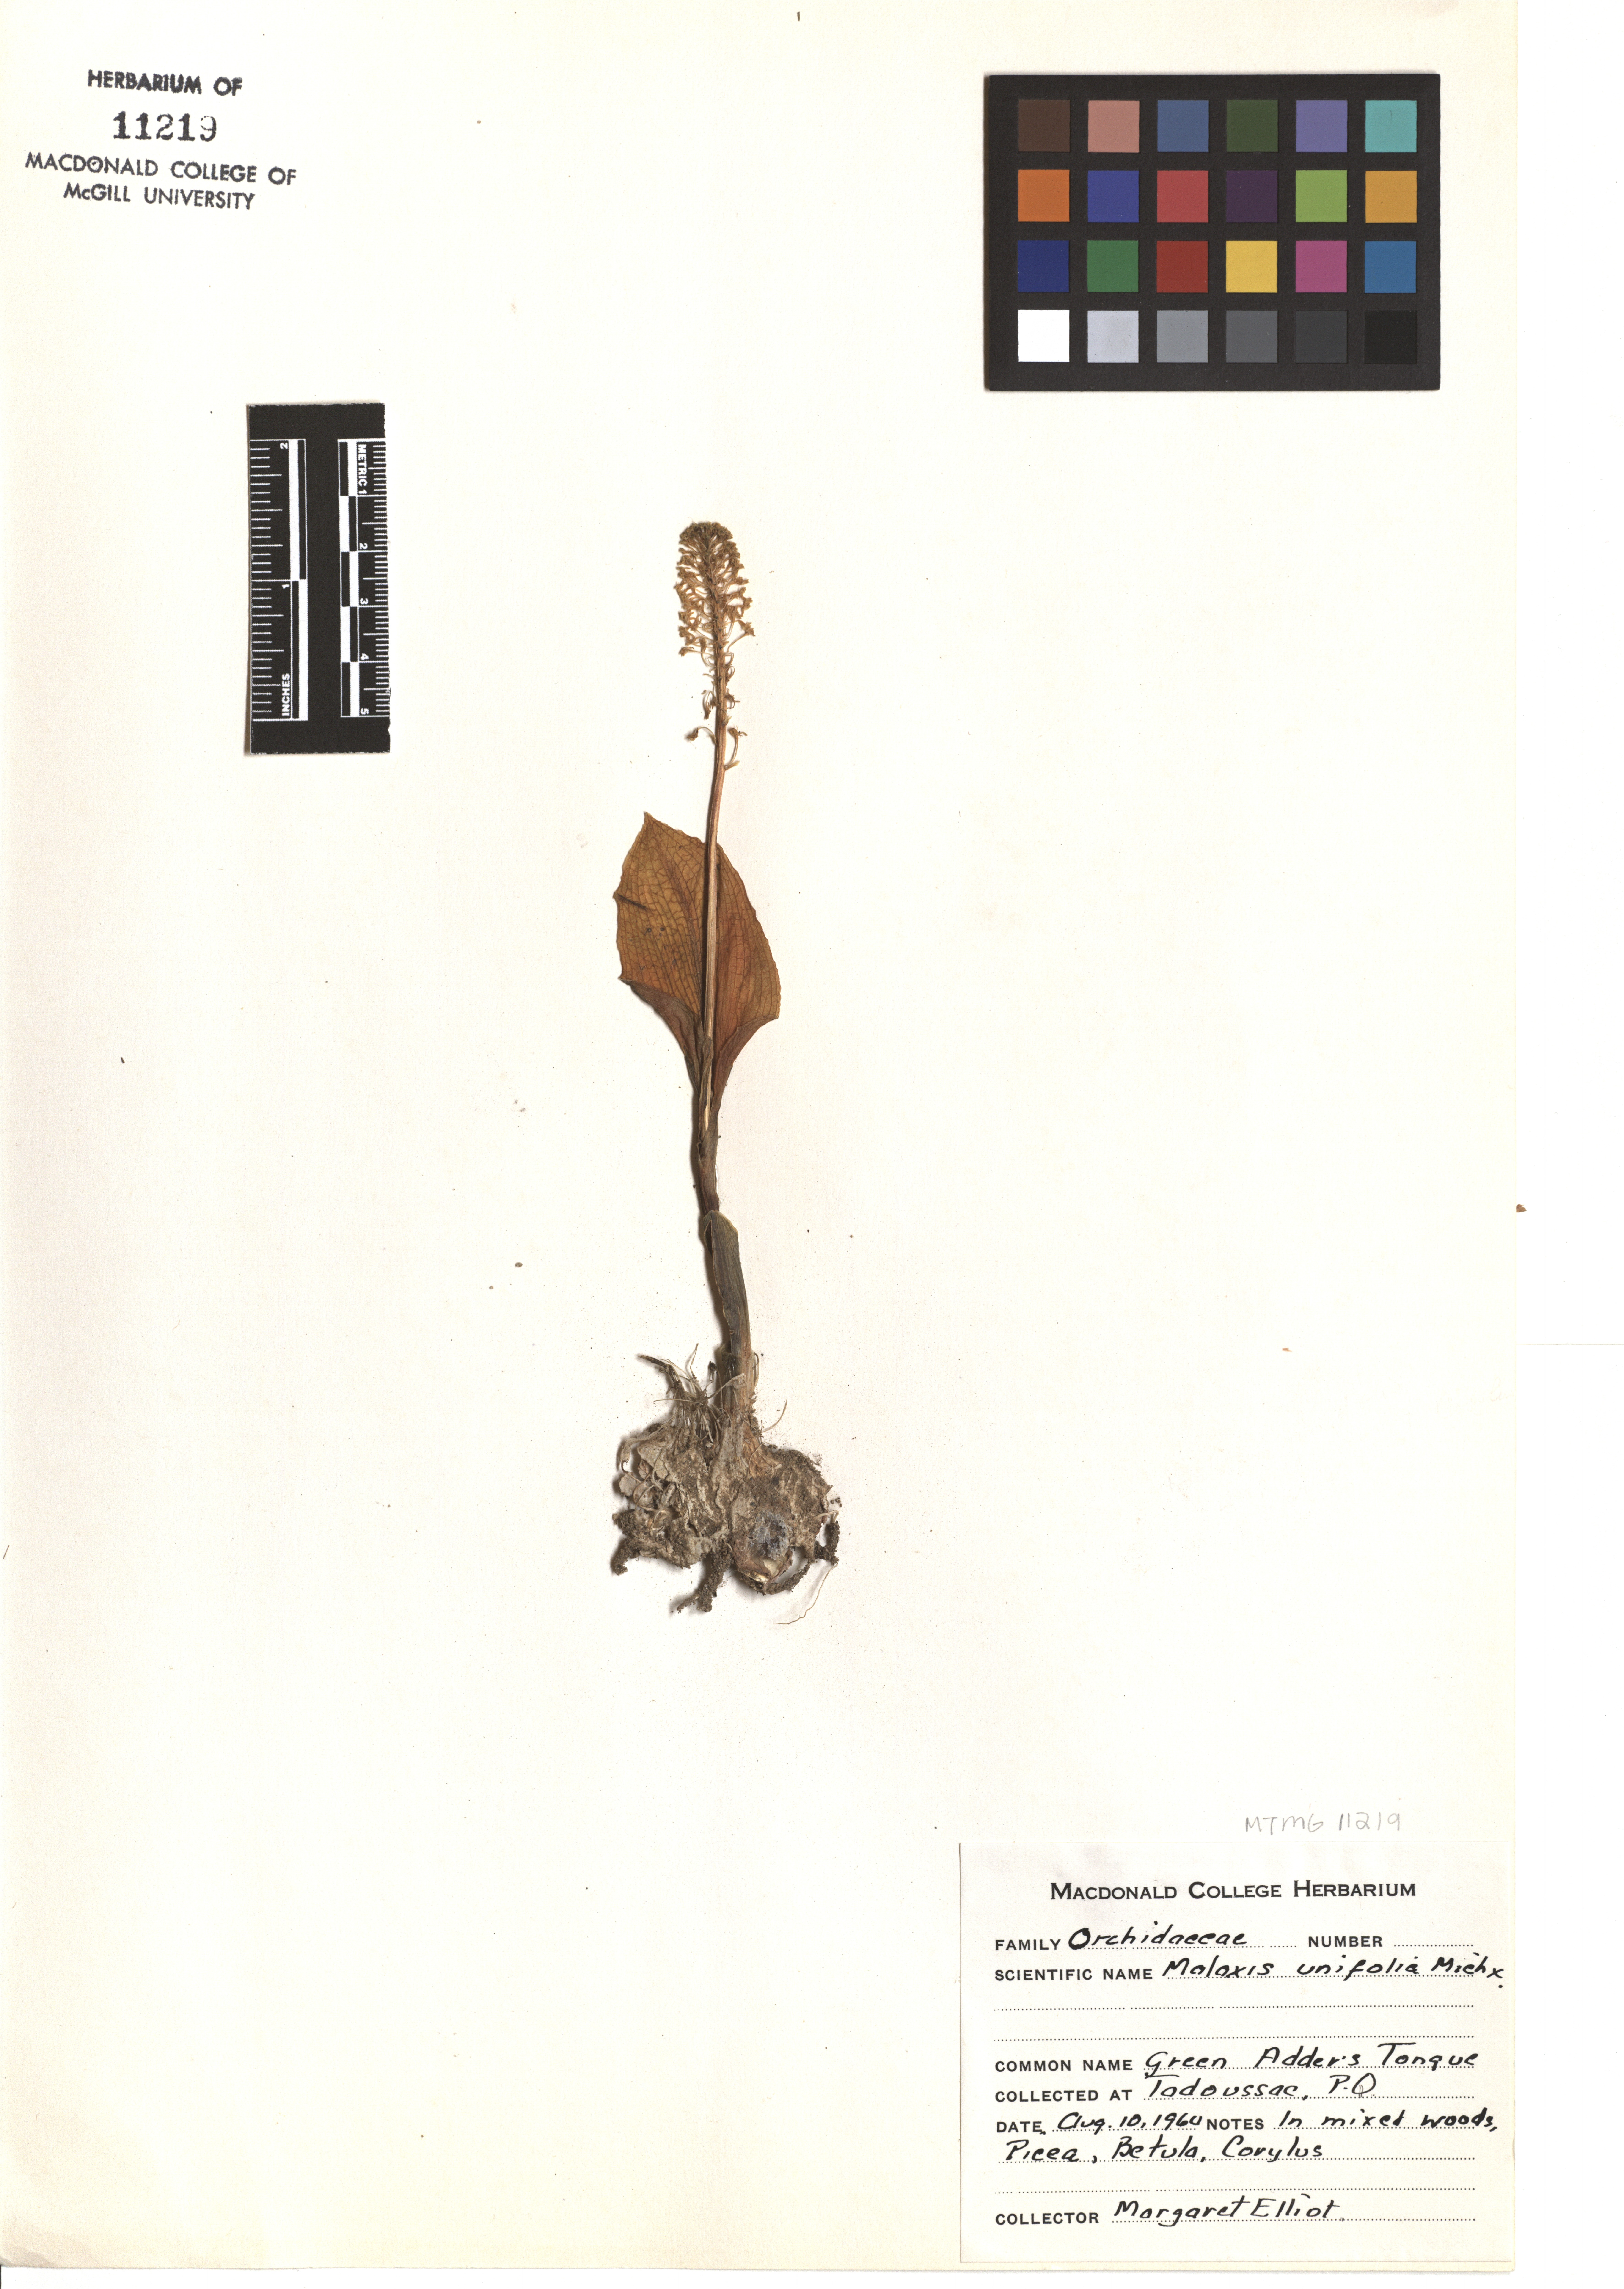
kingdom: Plantae
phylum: Tracheophyta
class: Liliopsida
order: Asparagales
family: Orchidaceae
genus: Malaxis
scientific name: Malaxis unifolia
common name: Green adder's-mouth
